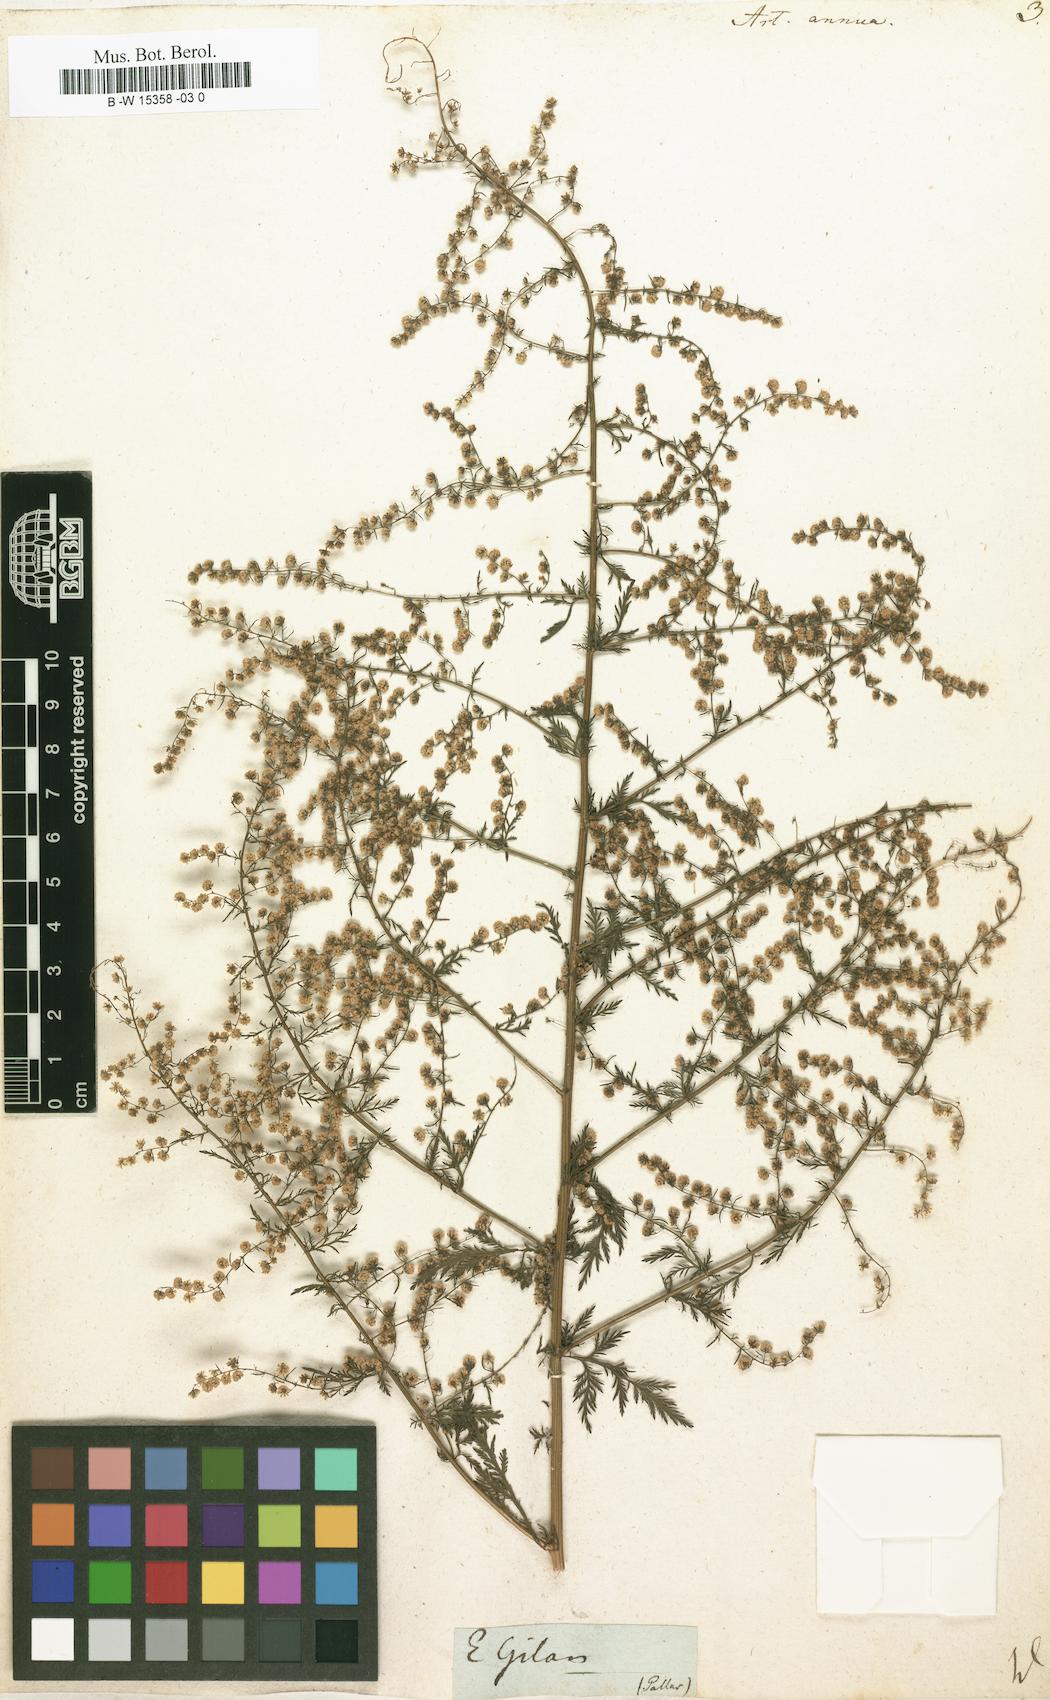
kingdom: Plantae
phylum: Tracheophyta
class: Magnoliopsida
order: Asterales
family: Asteraceae
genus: Artemisia
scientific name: Artemisia annua
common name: Sweet sagewort
